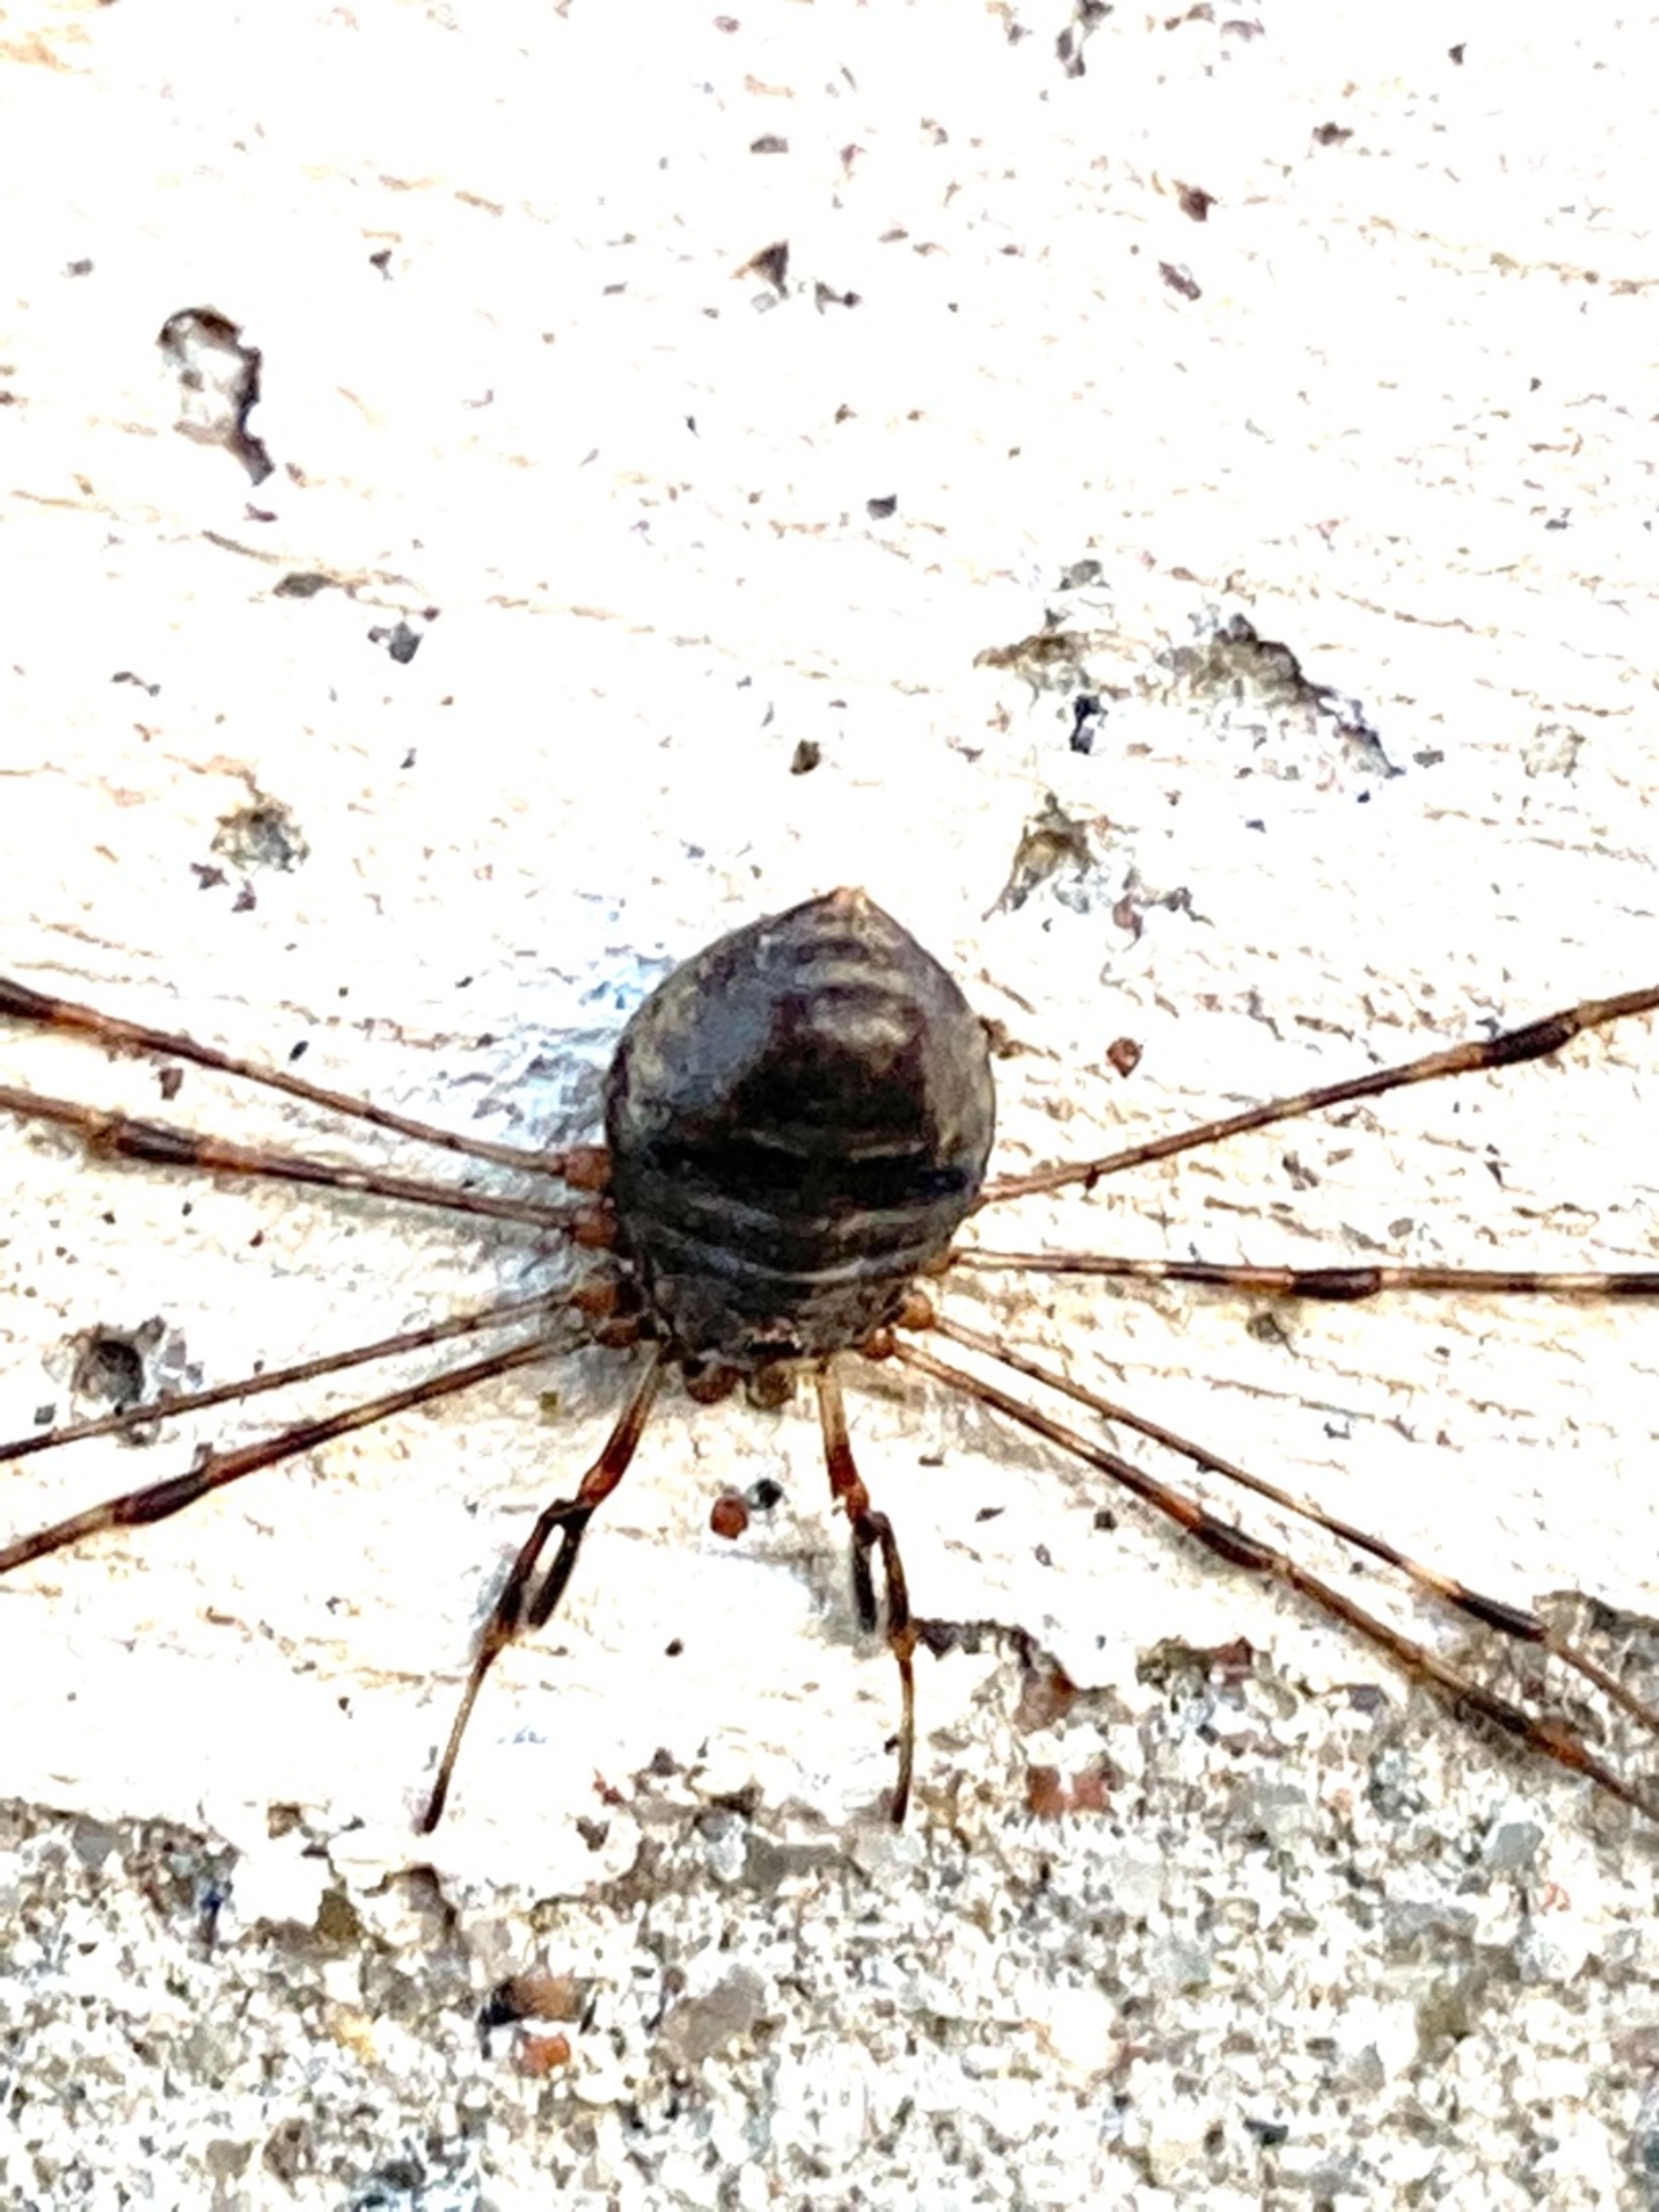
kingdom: Animalia
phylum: Arthropoda
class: Arachnida
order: Opiliones
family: Phalangiidae
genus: Dicranopalpus
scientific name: Dicranopalpus ramosus
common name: Gaffelmejer
